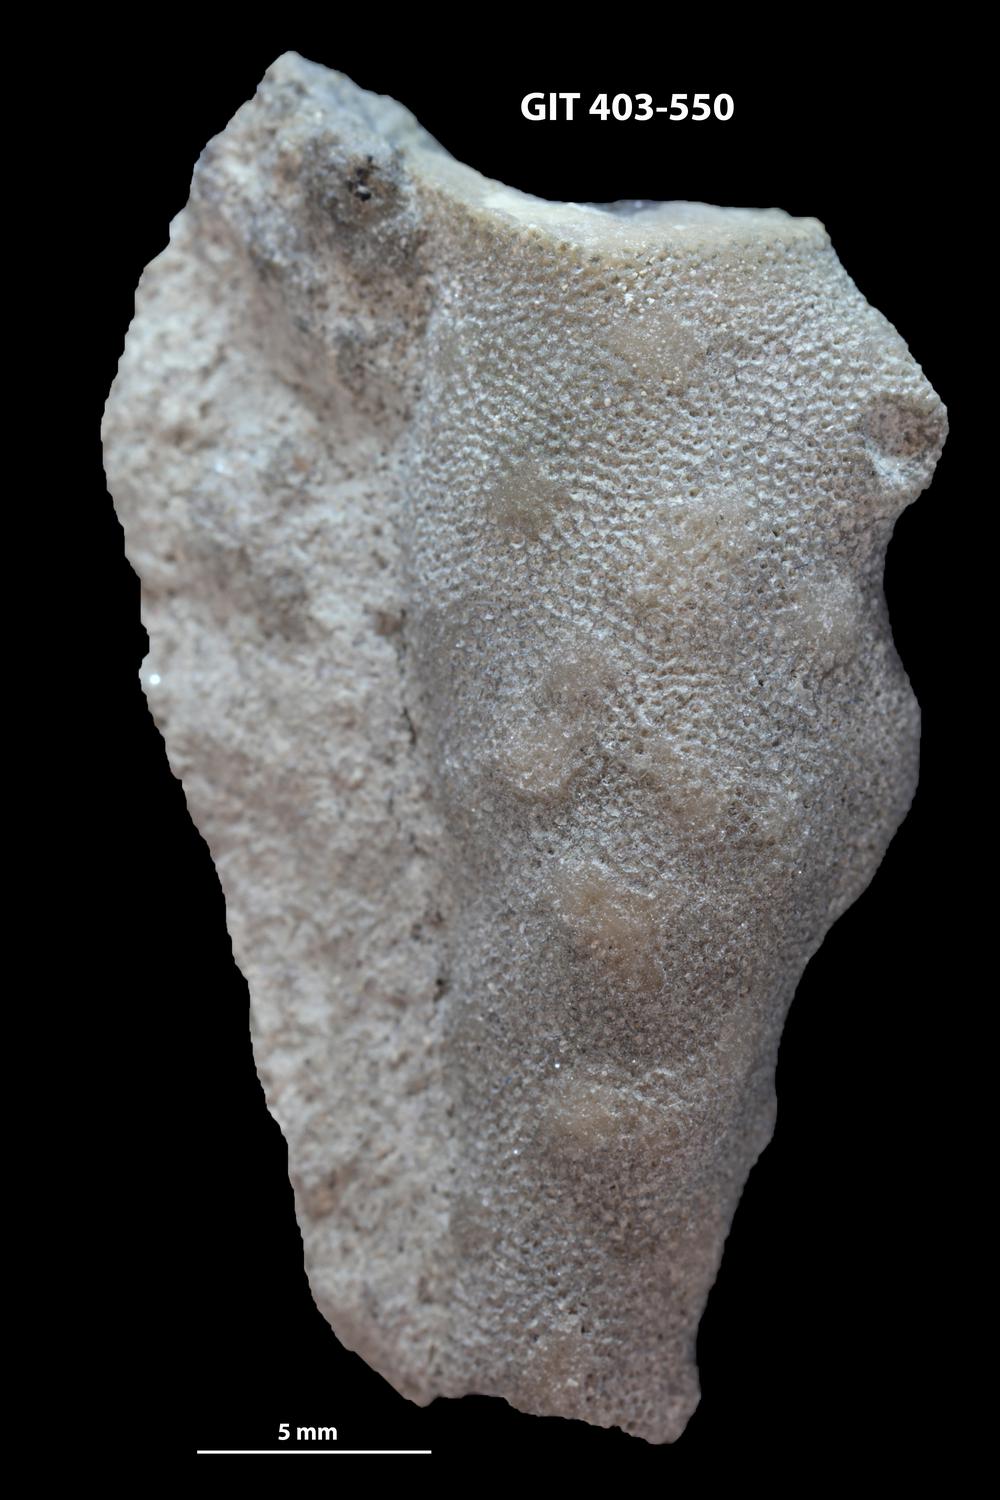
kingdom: Animalia
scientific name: Animalia
